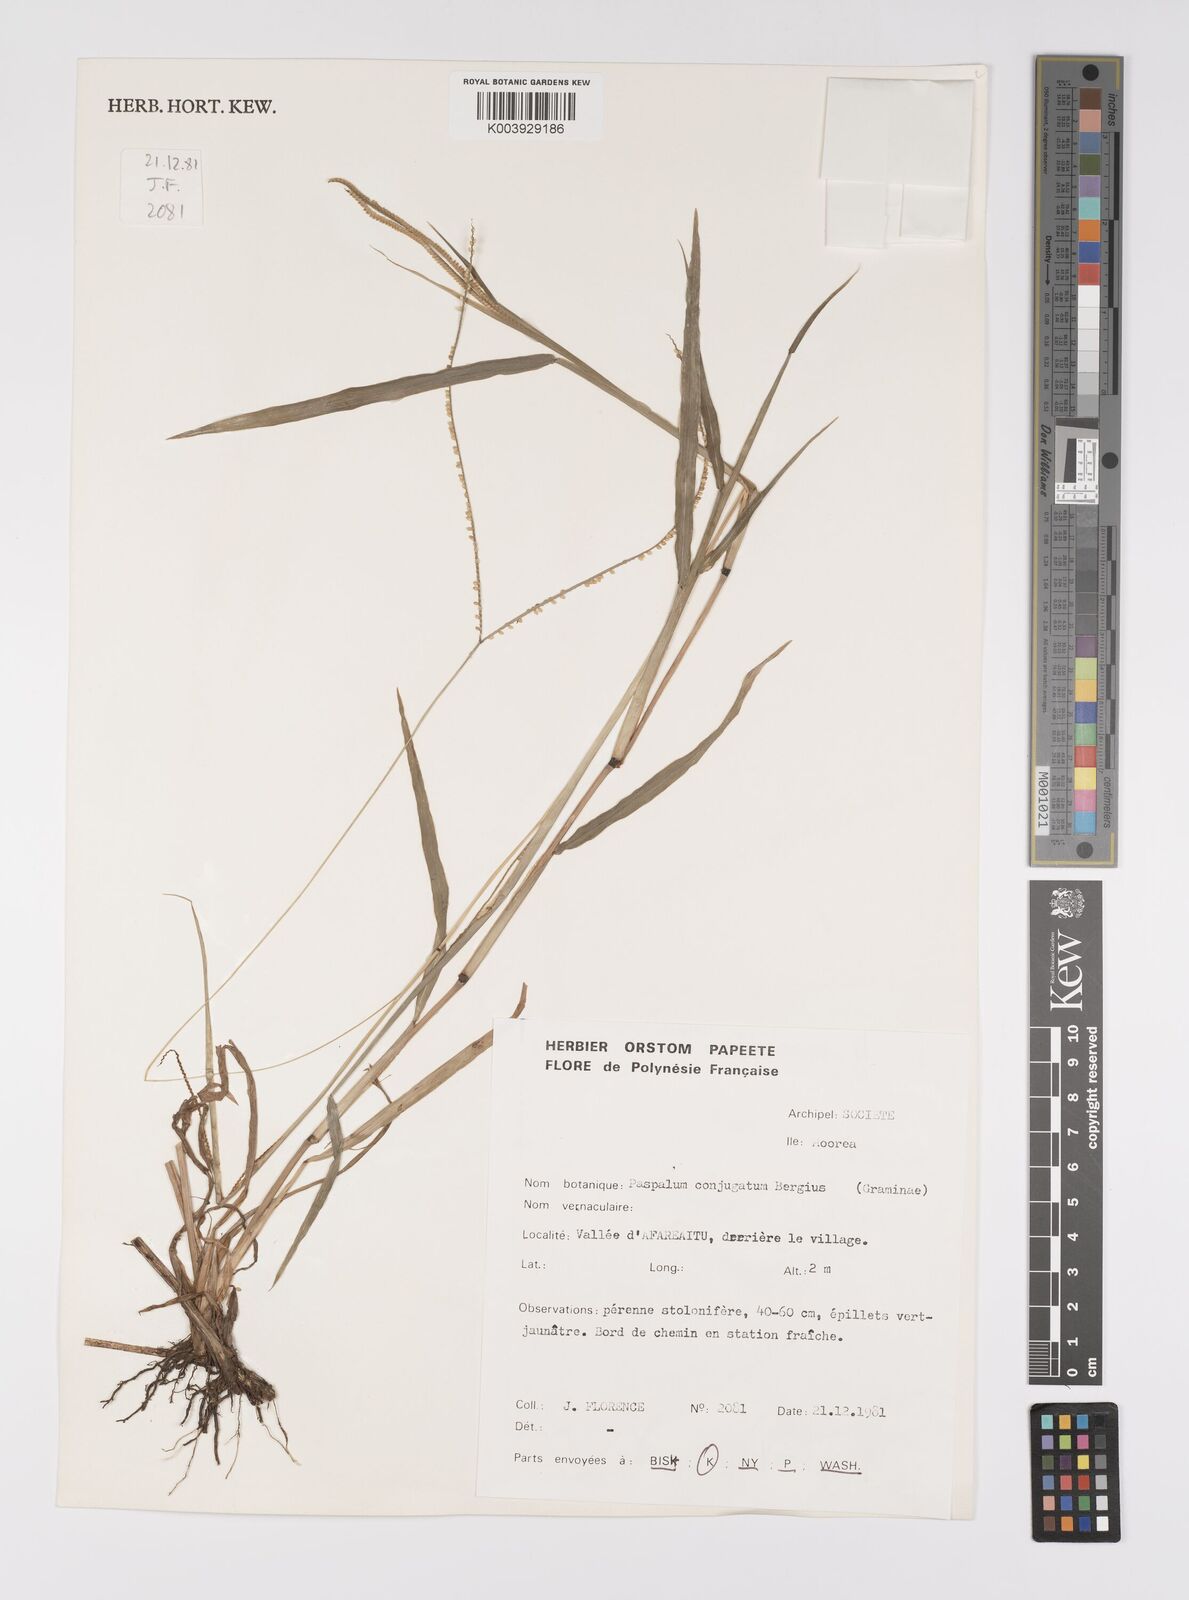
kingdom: Plantae
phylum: Tracheophyta
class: Liliopsida
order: Poales
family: Poaceae
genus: Paspalum
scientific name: Paspalum conjugatum
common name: Hilograss
